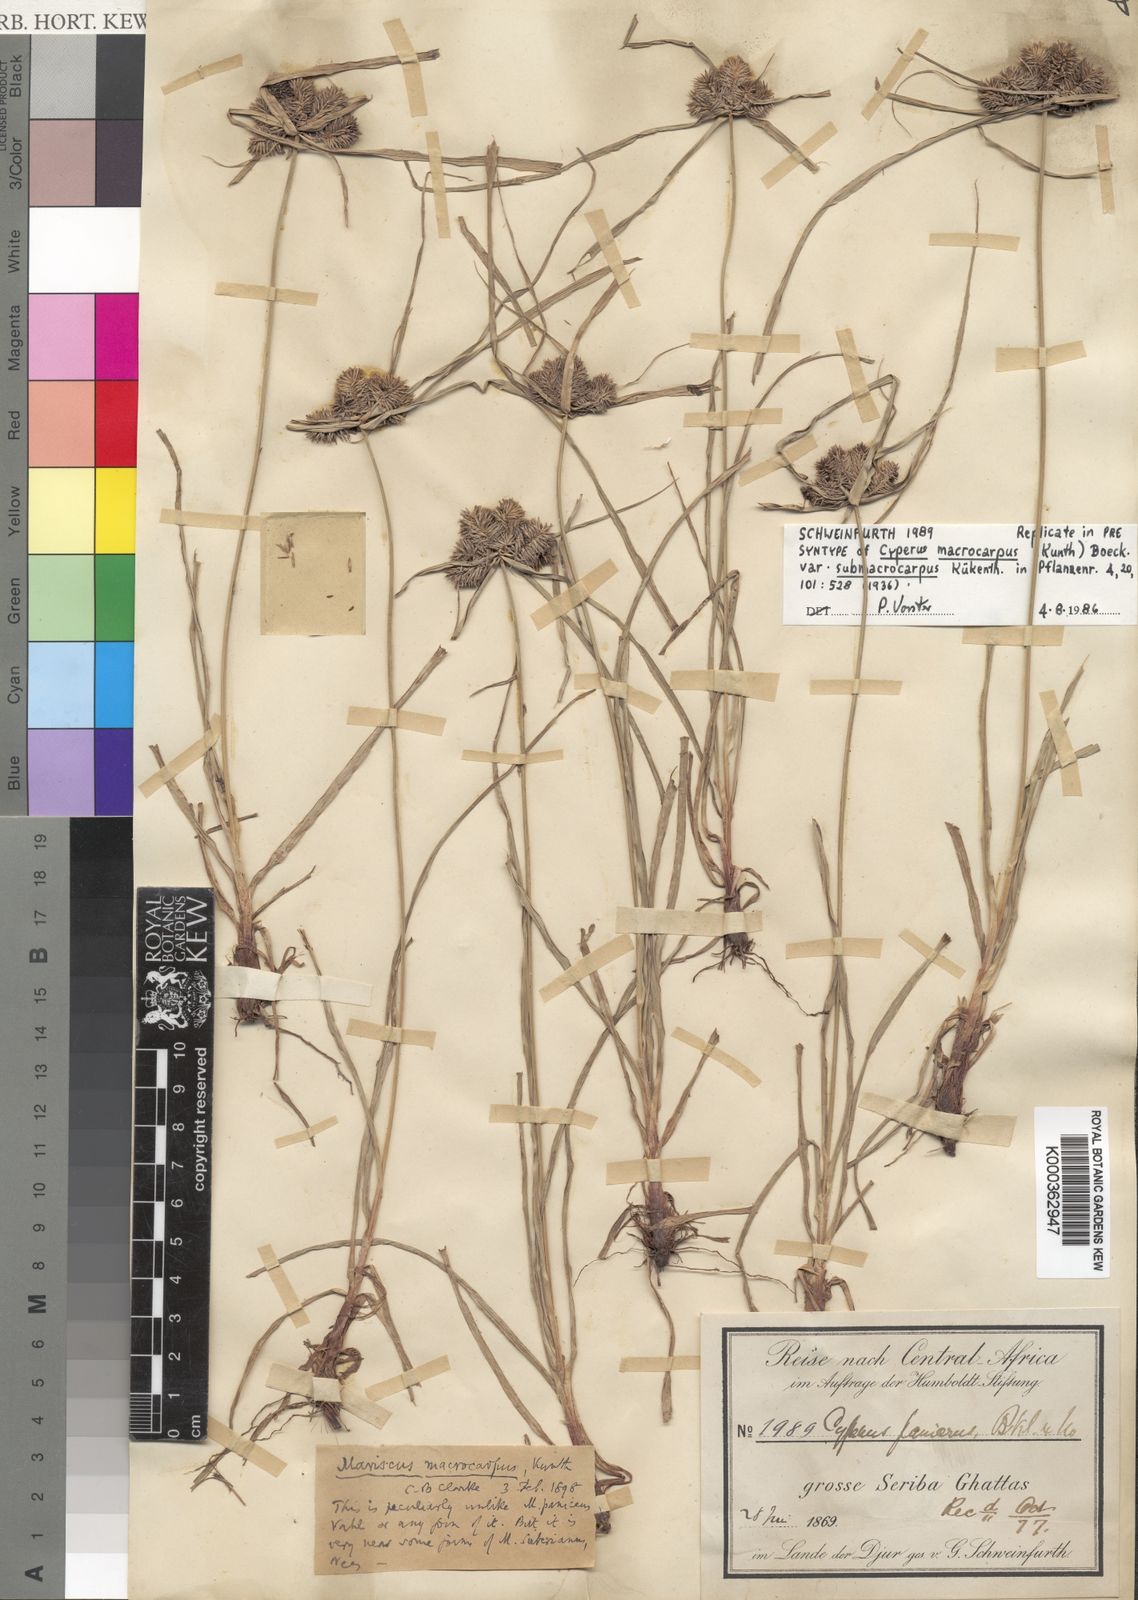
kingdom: Plantae
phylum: Tracheophyta
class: Liliopsida
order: Poales
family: Cyperaceae
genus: Cyperus
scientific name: Cyperus
